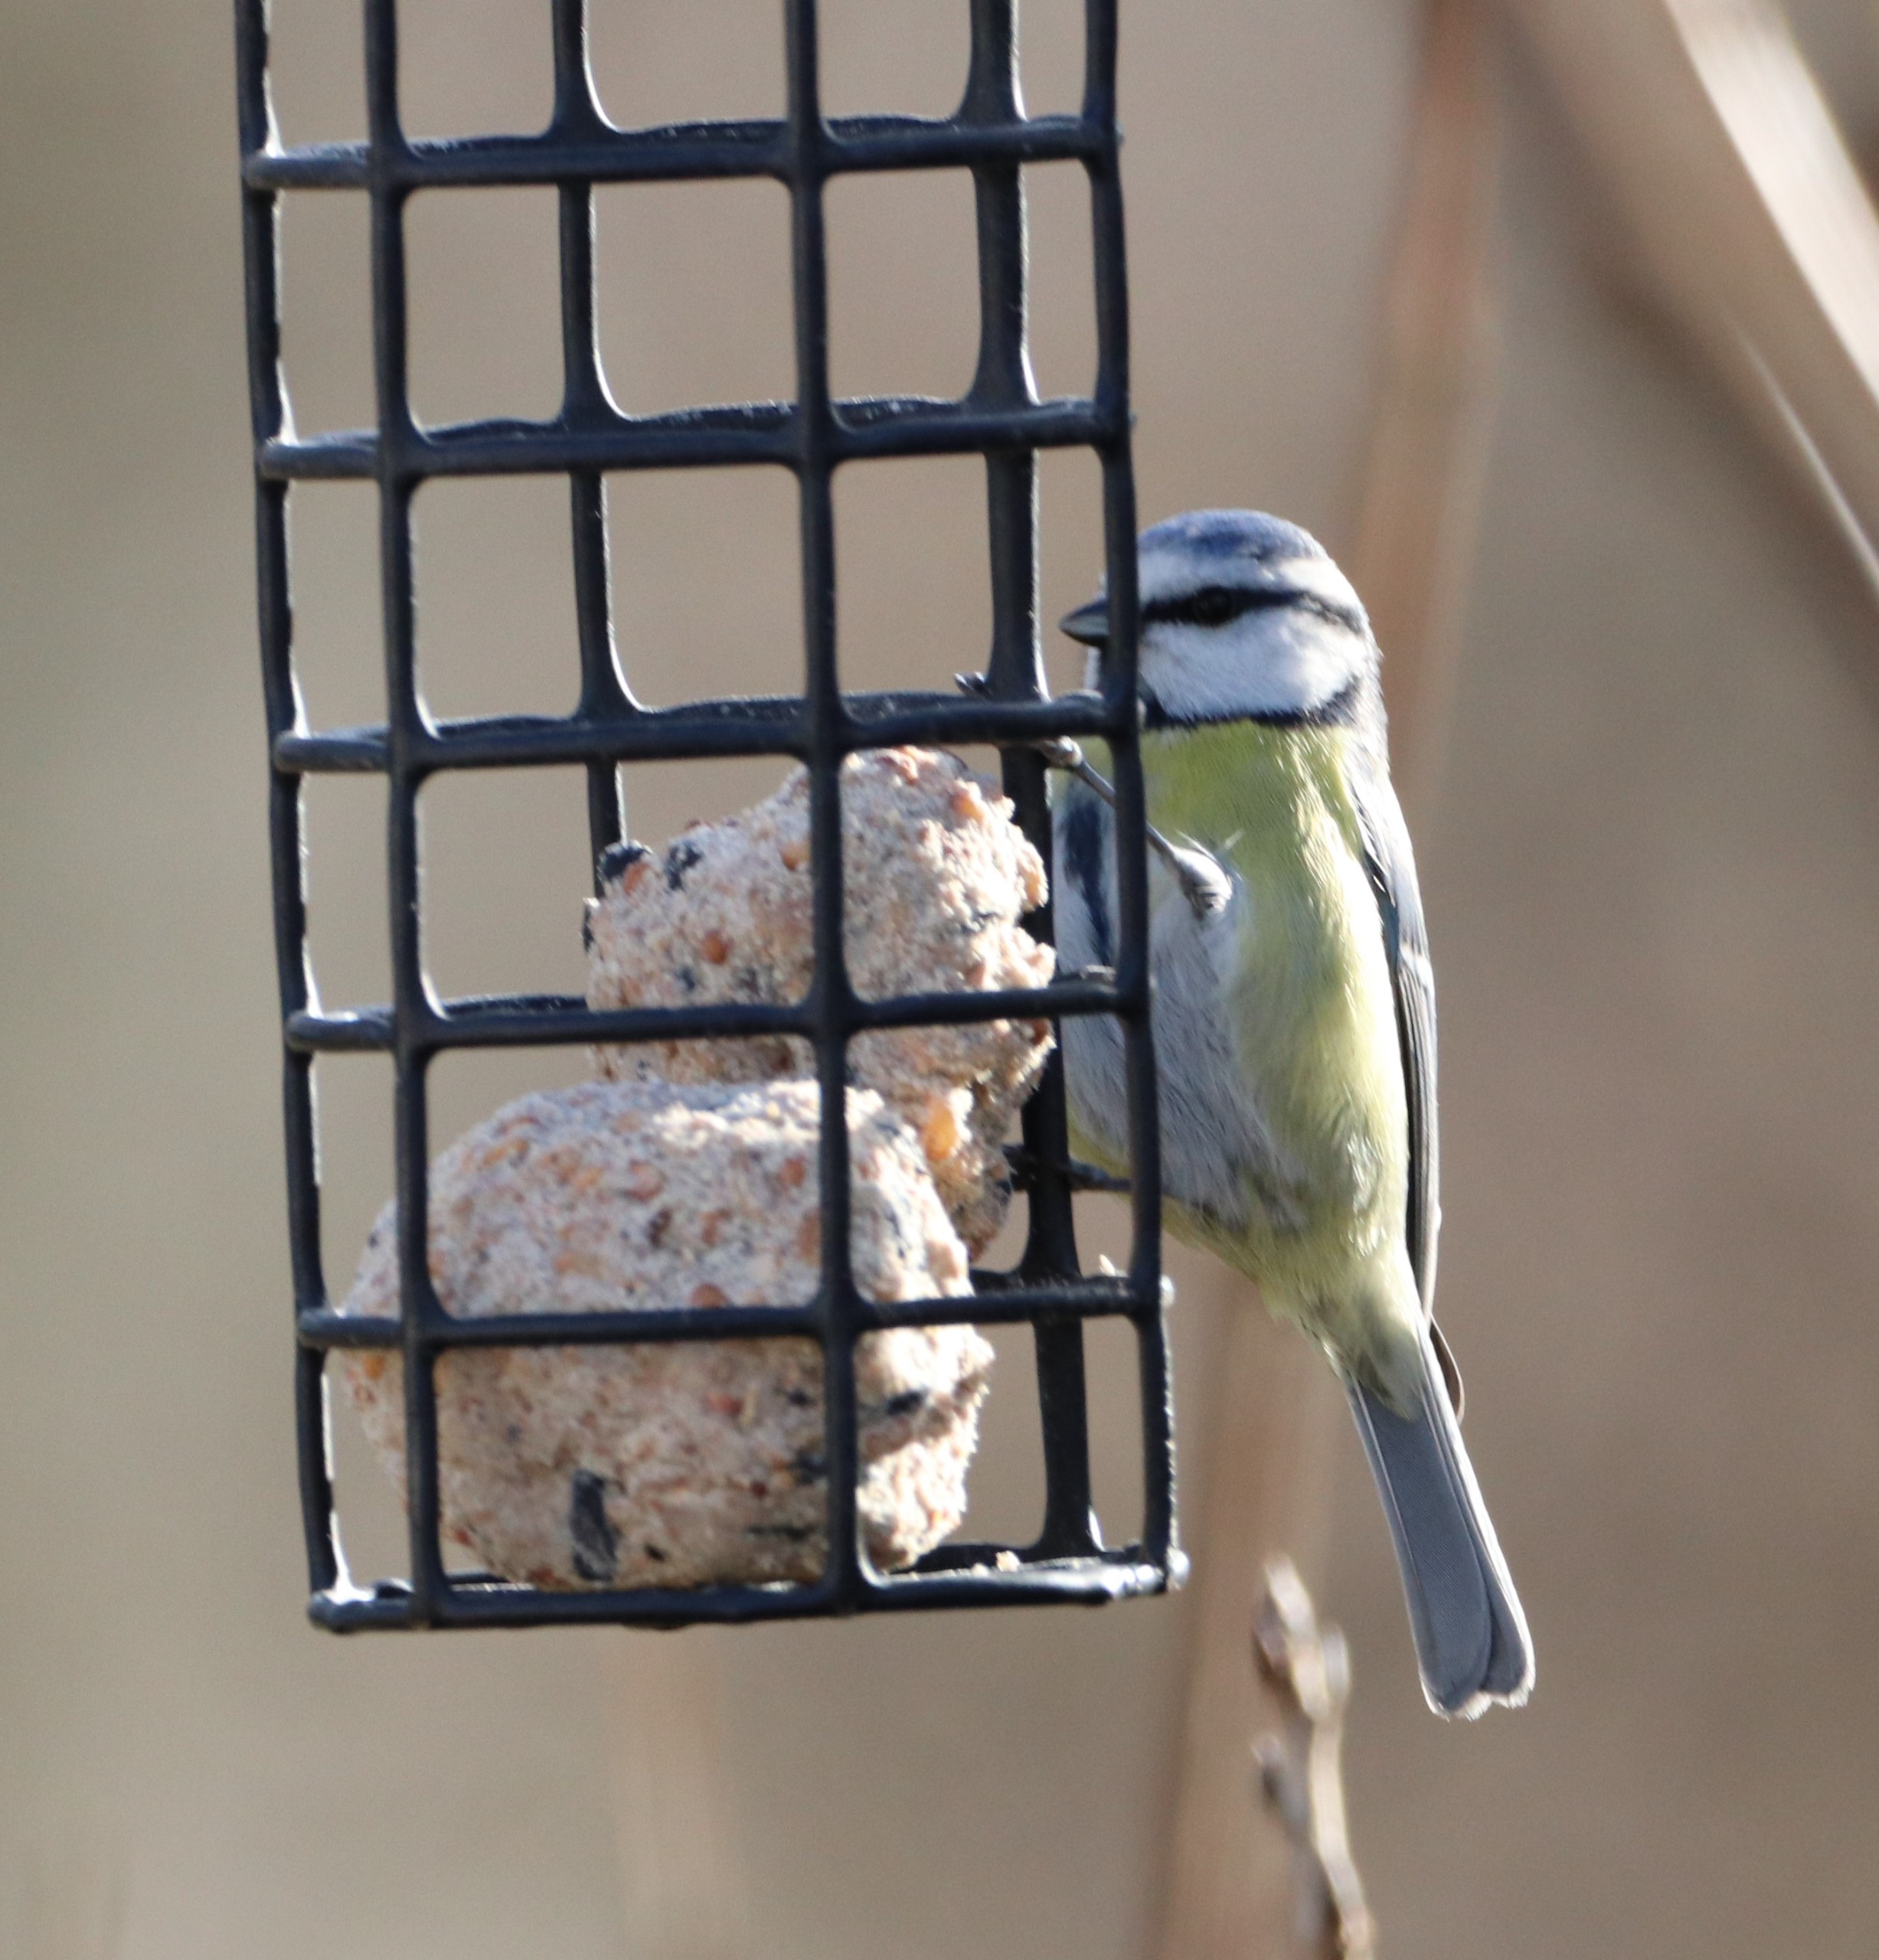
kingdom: Animalia
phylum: Chordata
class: Aves
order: Passeriformes
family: Paridae
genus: Cyanistes
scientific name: Cyanistes caeruleus
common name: Blåmejse
